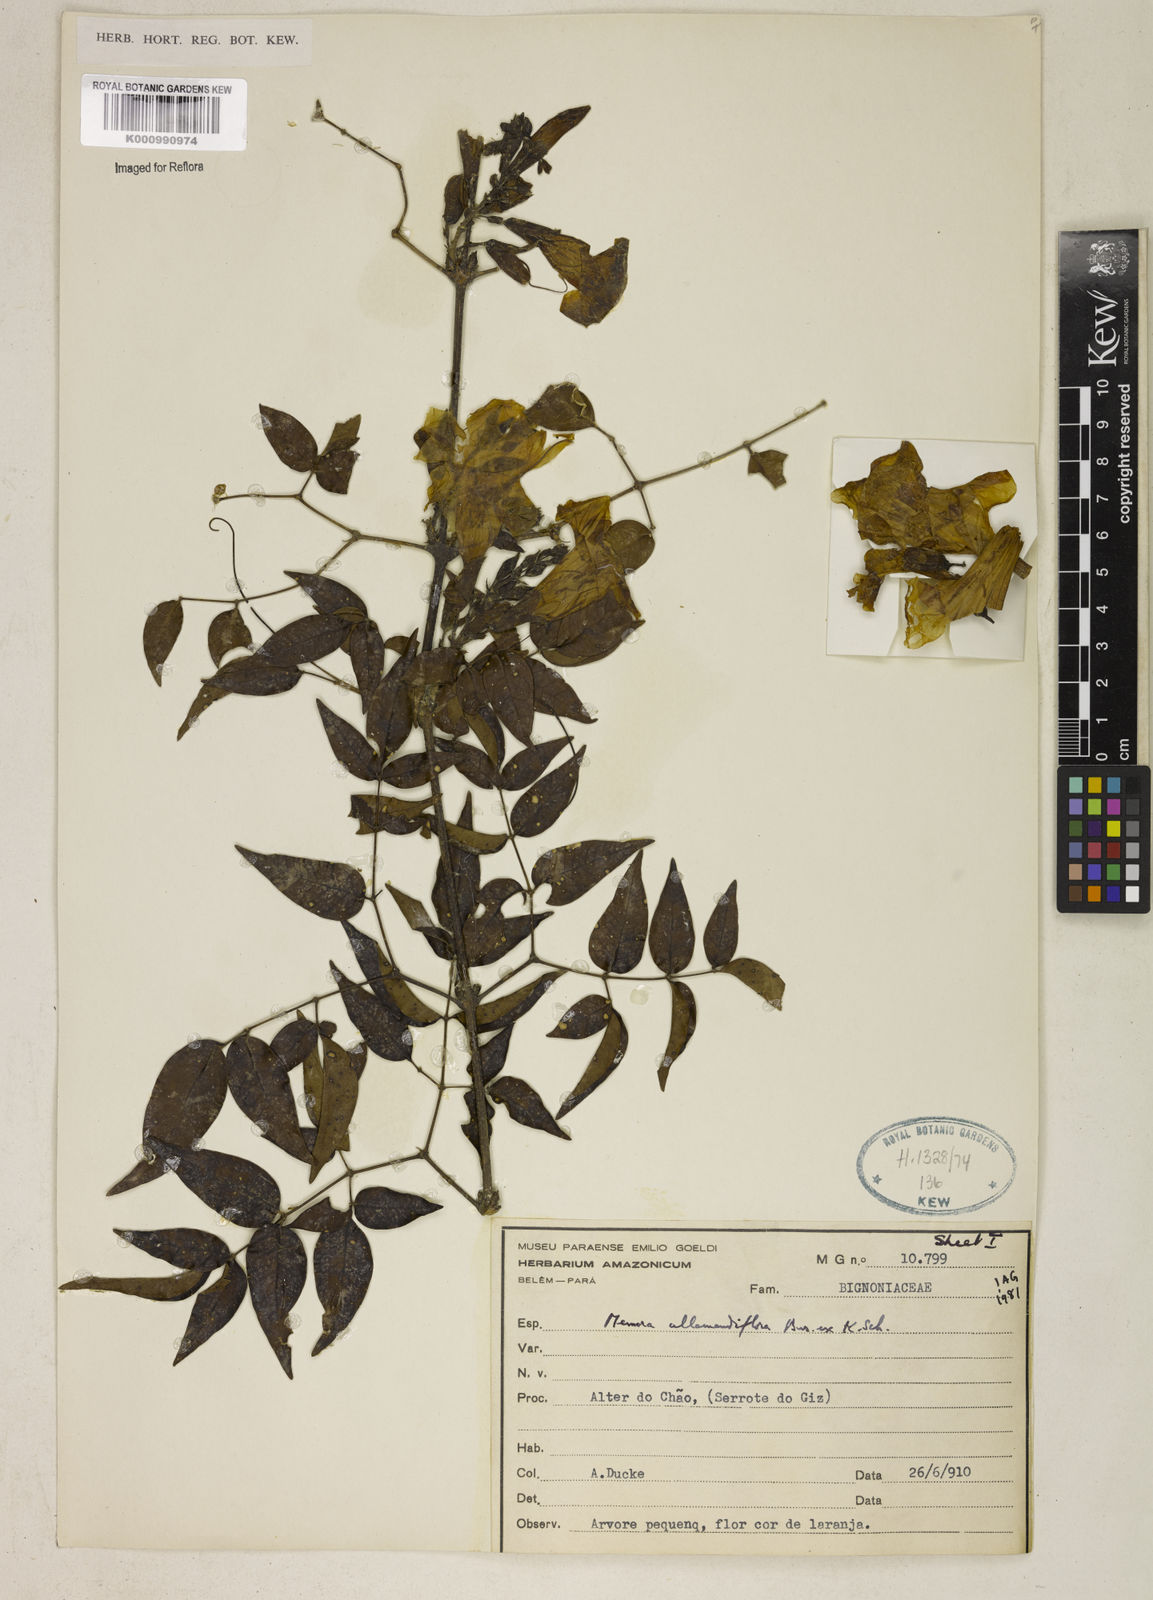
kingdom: Plantae
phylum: Tracheophyta
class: Magnoliopsida
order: Lamiales
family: Bignoniaceae
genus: Adenocalymma
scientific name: Adenocalymma
